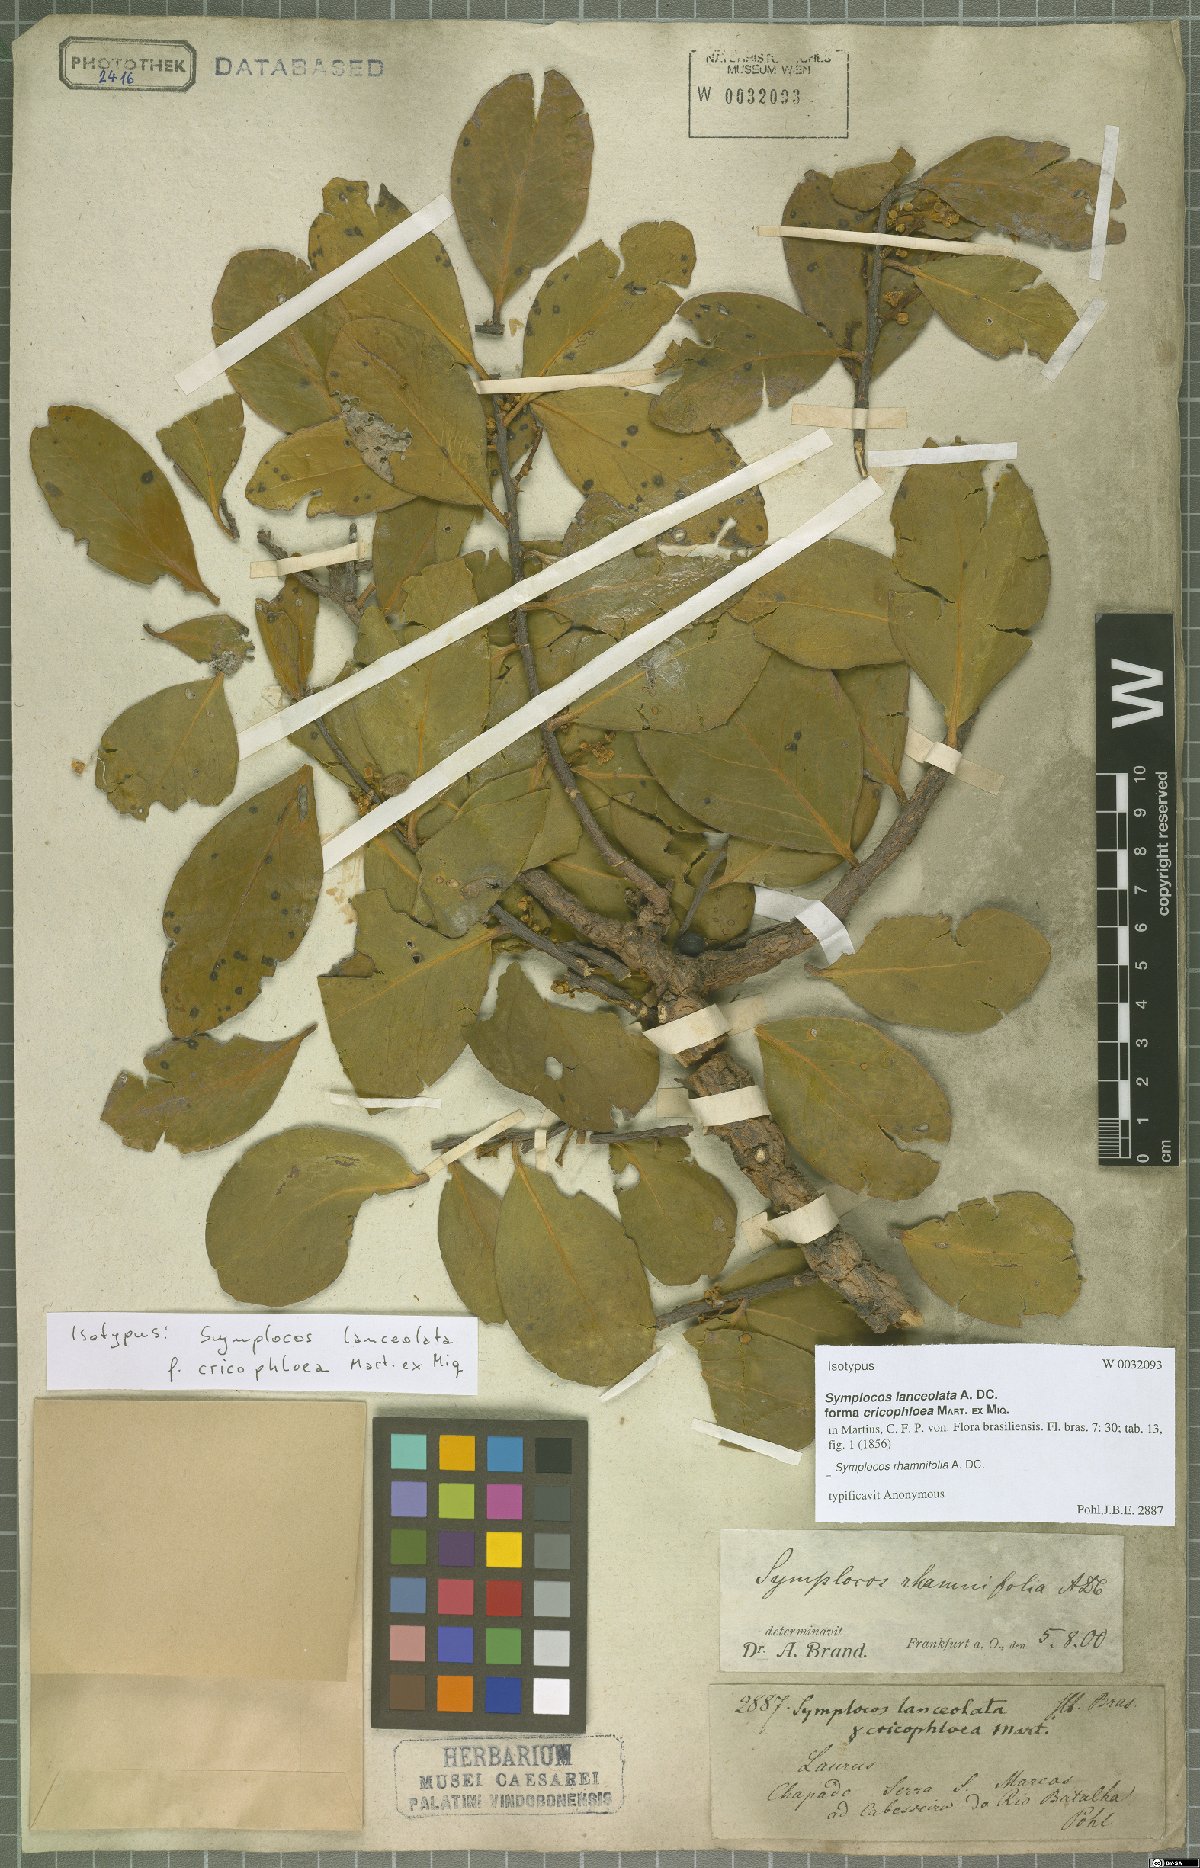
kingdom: Plantae
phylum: Tracheophyta
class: Magnoliopsida
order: Ericales
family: Symplocaceae
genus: Symplocos
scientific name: Symplocos rhamnifolia
